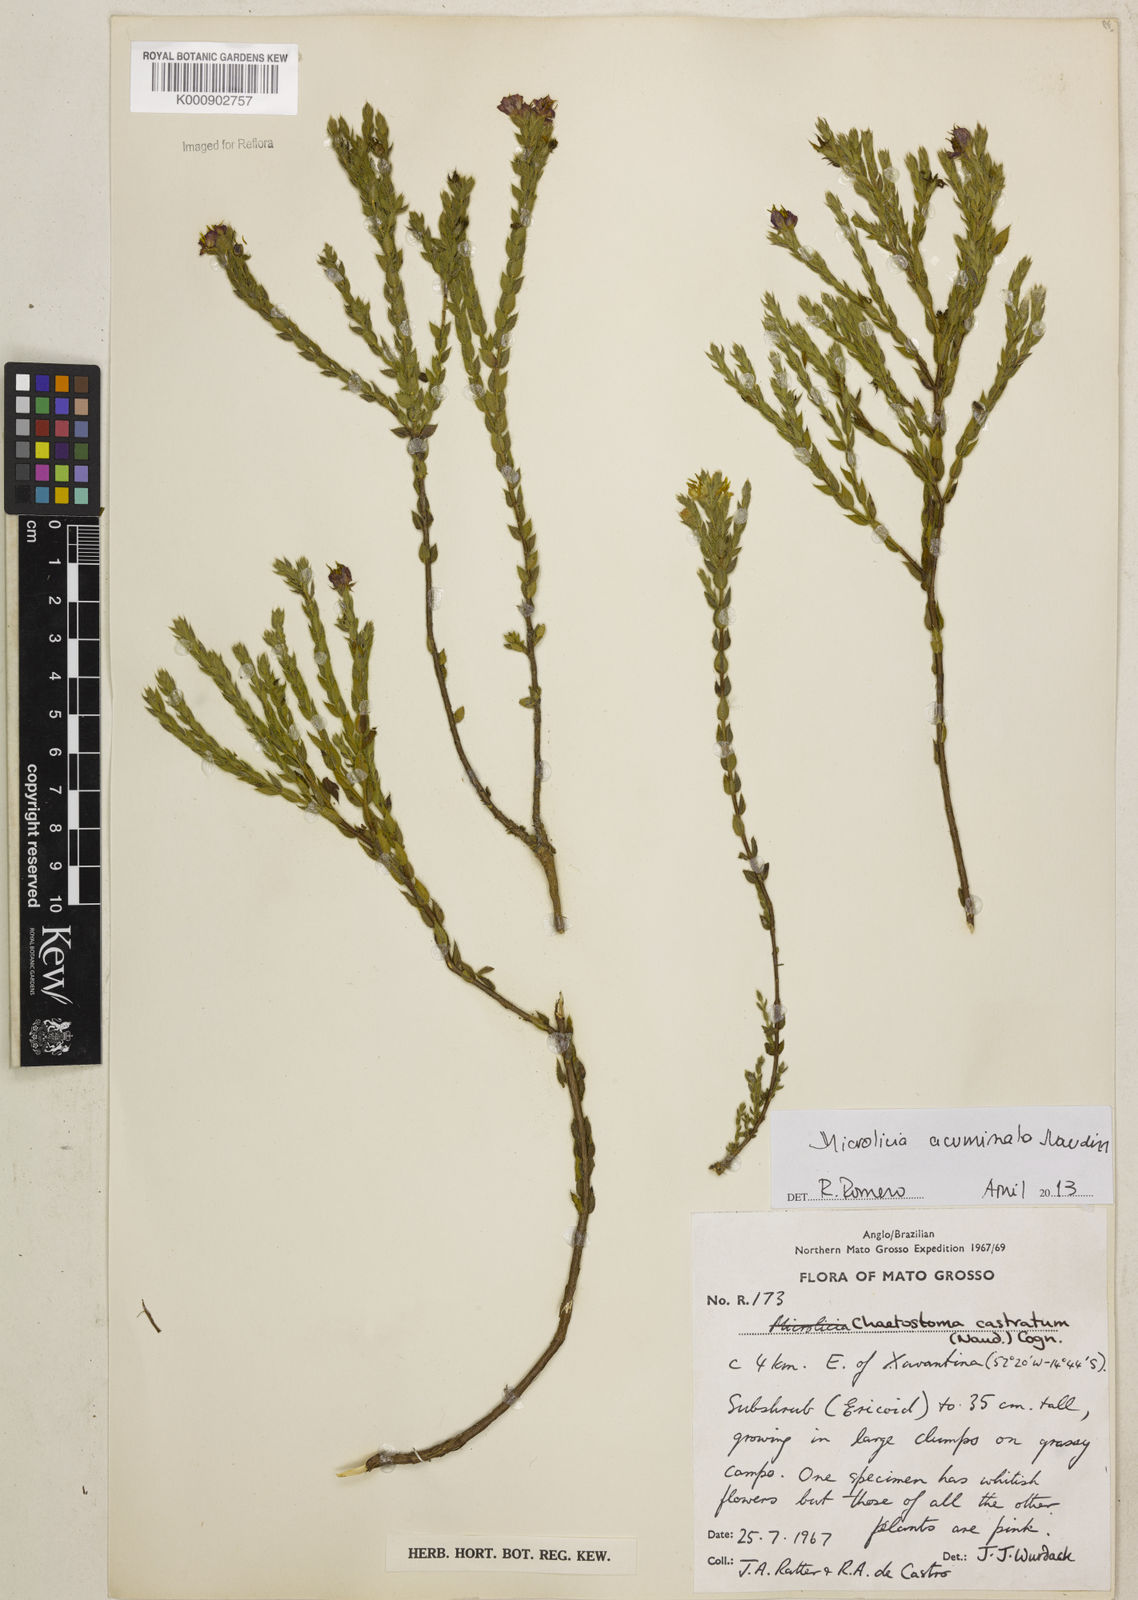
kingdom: Plantae
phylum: Tracheophyta
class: Magnoliopsida
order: Myrtales
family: Melastomataceae
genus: Microlicia
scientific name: Microlicia
